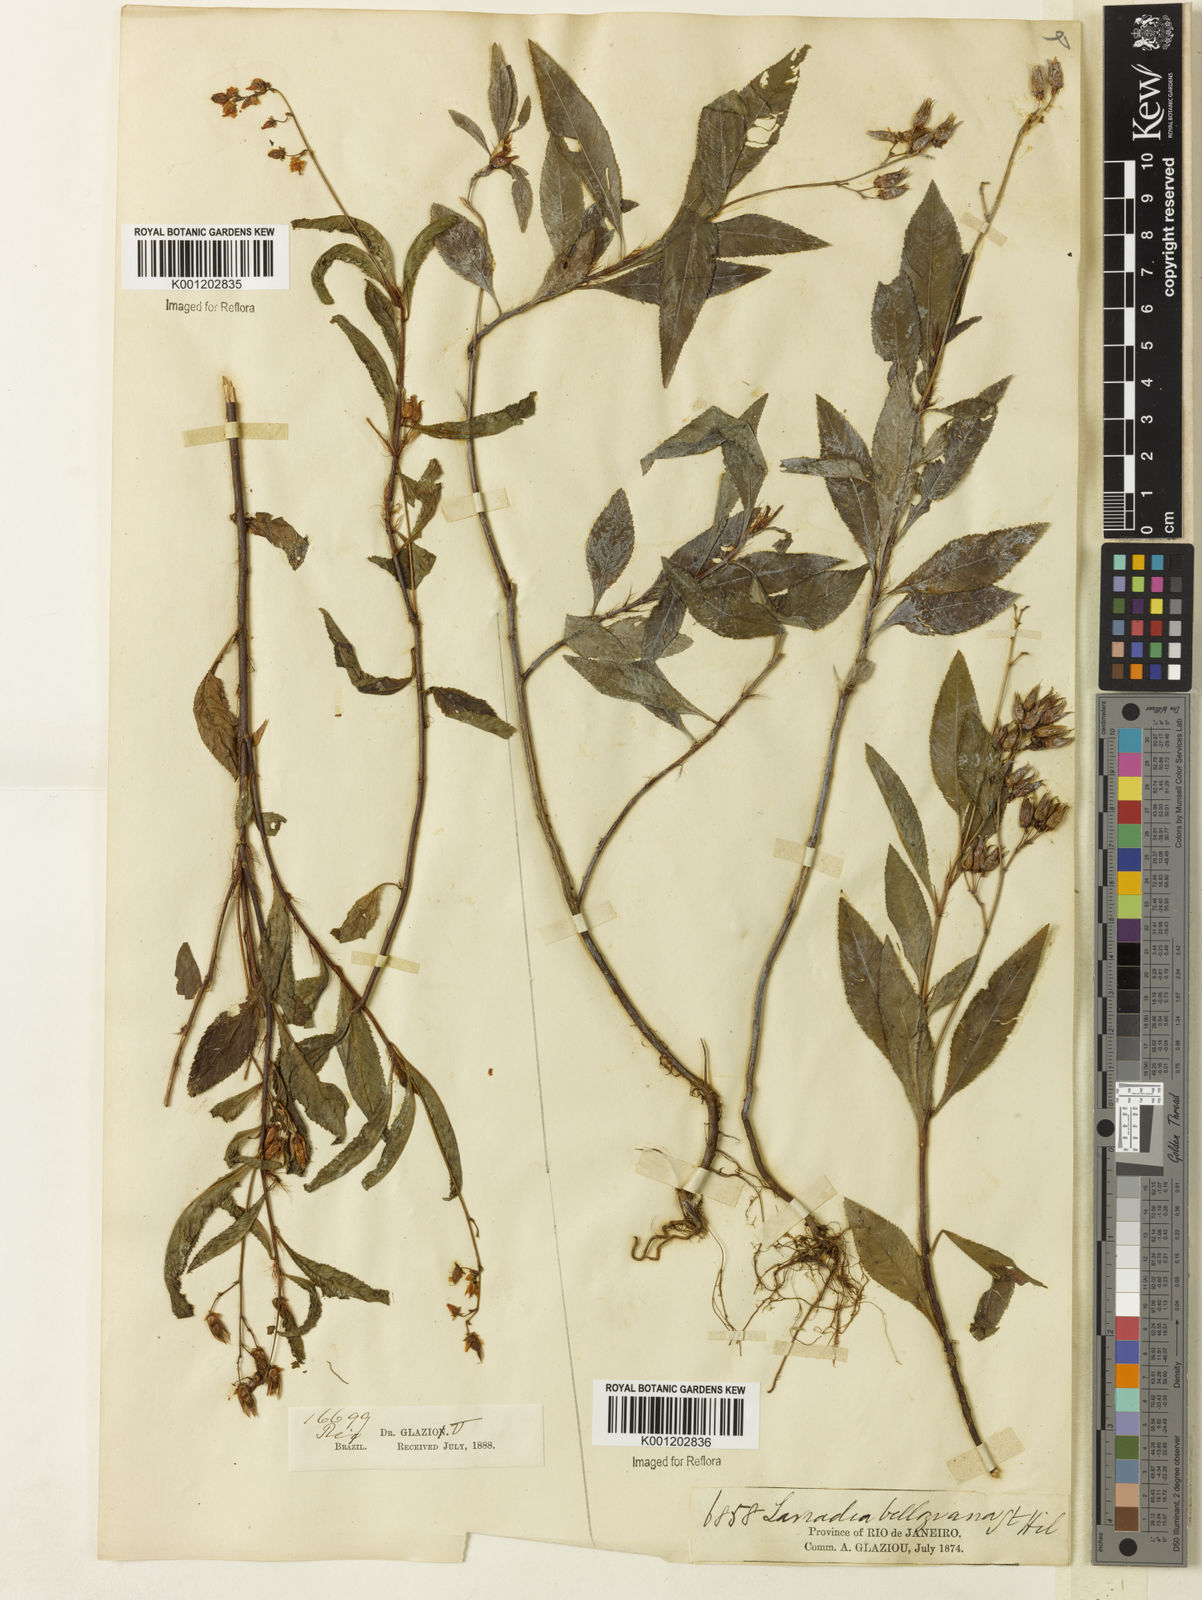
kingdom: Plantae
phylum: Tracheophyta
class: Magnoliopsida
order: Malpighiales
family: Ochnaceae
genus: Sauvagesia
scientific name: Sauvagesia
